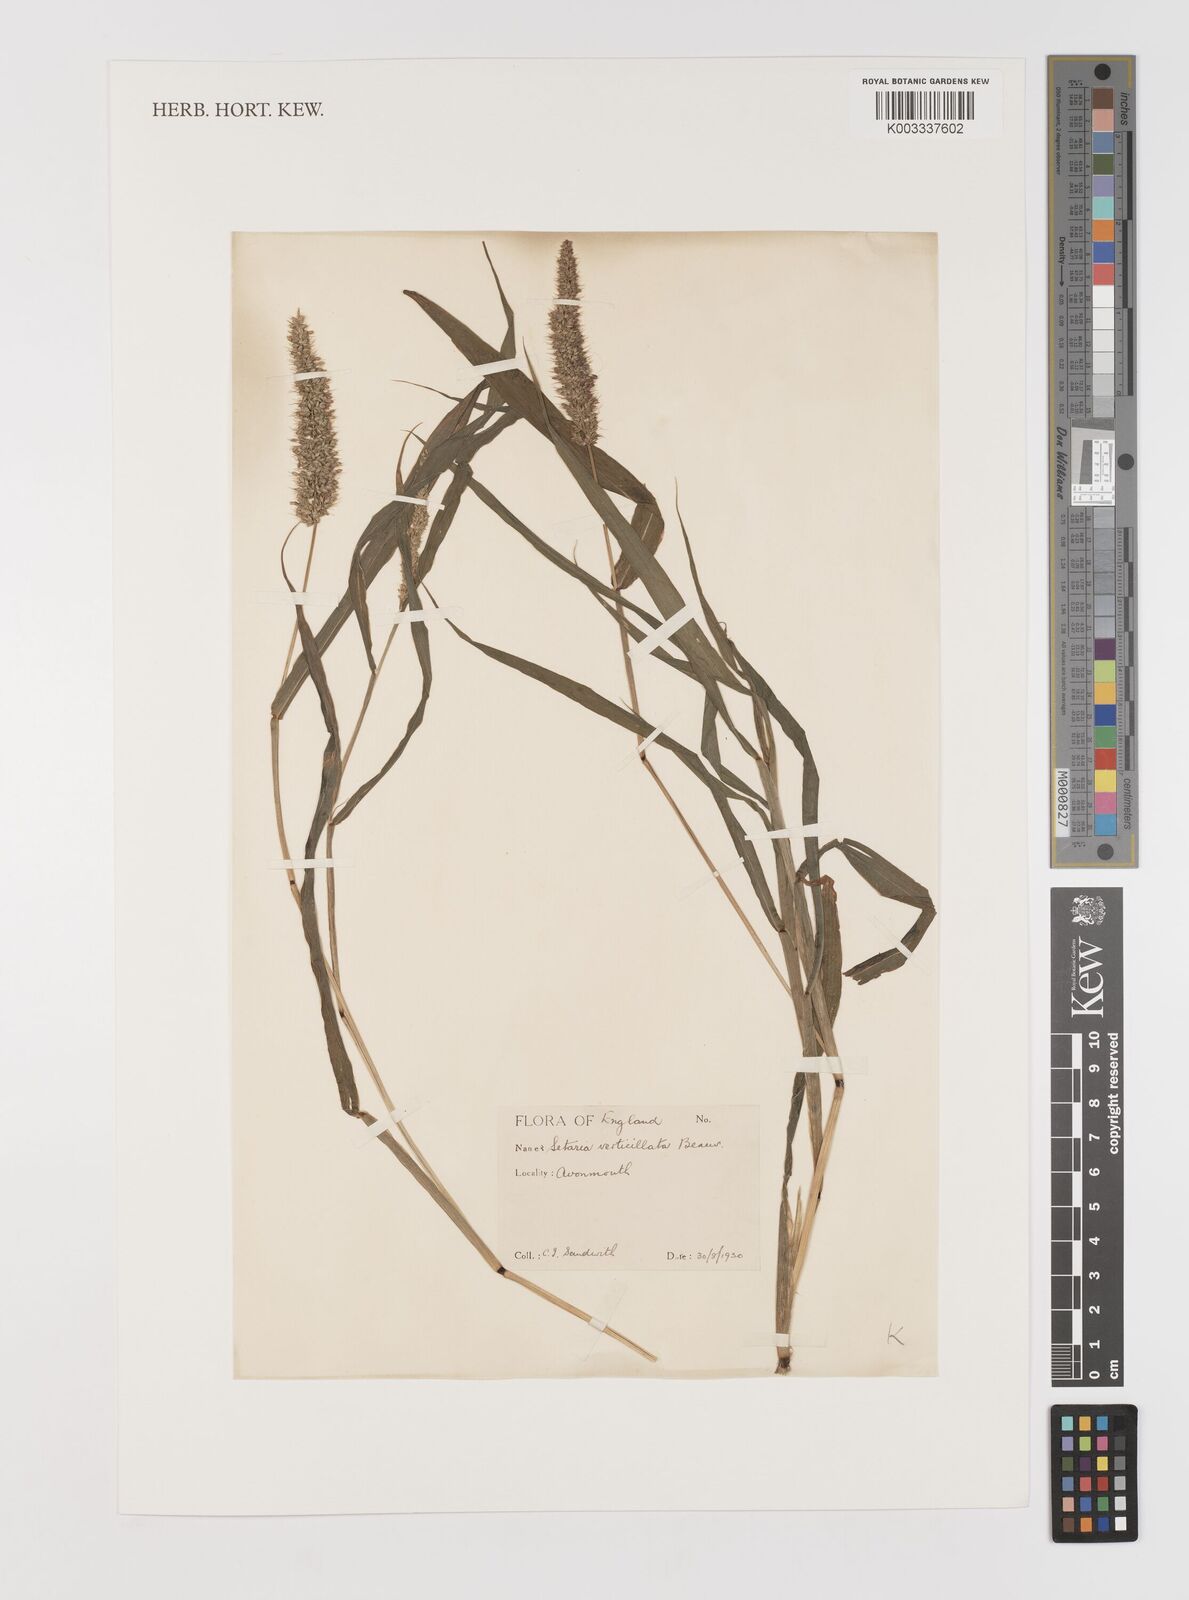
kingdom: Plantae
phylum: Tracheophyta
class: Liliopsida
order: Poales
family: Poaceae
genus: Setaria
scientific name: Setaria verticillata
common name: Hooked bristlegrass
